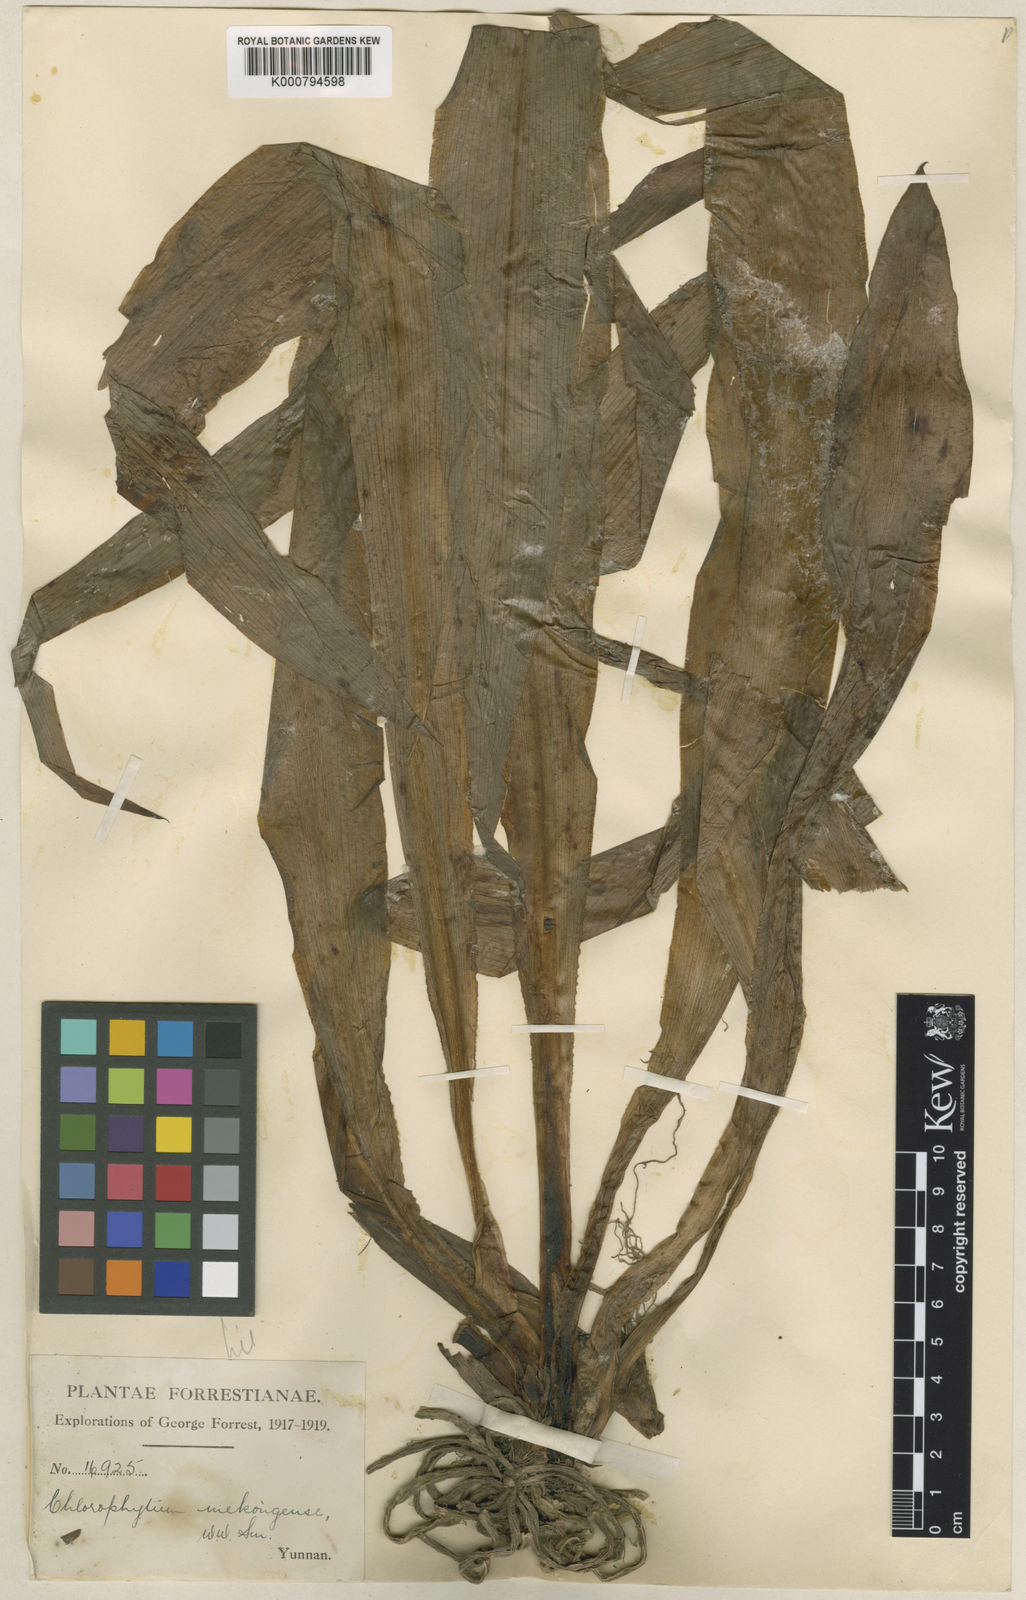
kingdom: Plantae
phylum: Tracheophyta
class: Liliopsida
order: Asparagales
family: Asparagaceae
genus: Chlorophytum
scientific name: Chlorophytum nepalense
